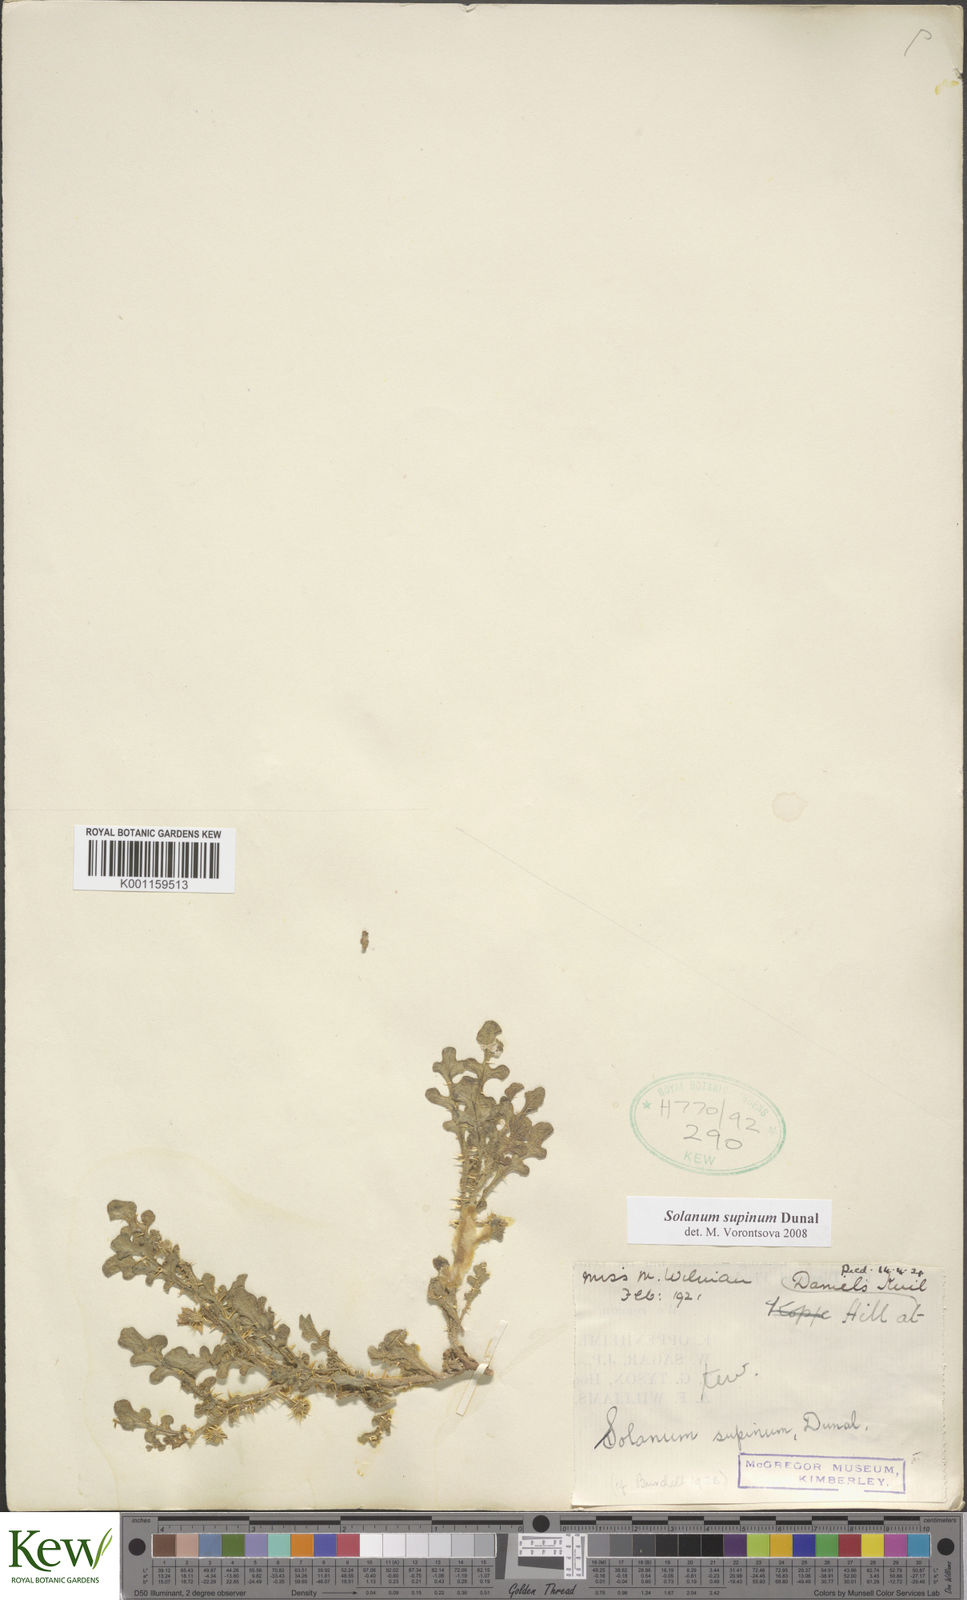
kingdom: Plantae
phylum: Tracheophyta
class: Magnoliopsida
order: Solanales
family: Solanaceae
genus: Solanum
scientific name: Solanum supinum
